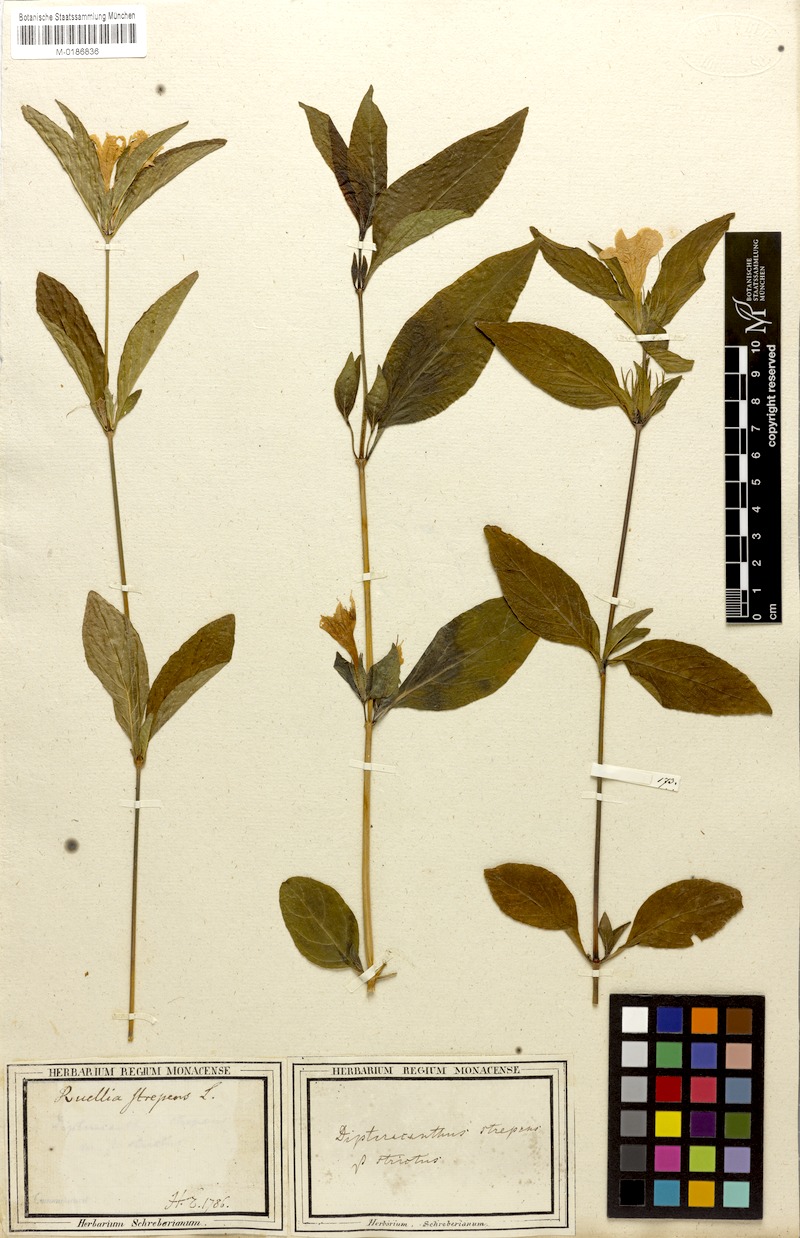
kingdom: Plantae
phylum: Tracheophyta
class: Magnoliopsida
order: Lamiales
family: Acanthaceae
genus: Ruellia
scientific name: Ruellia strepens
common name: Limestone wild petunia
